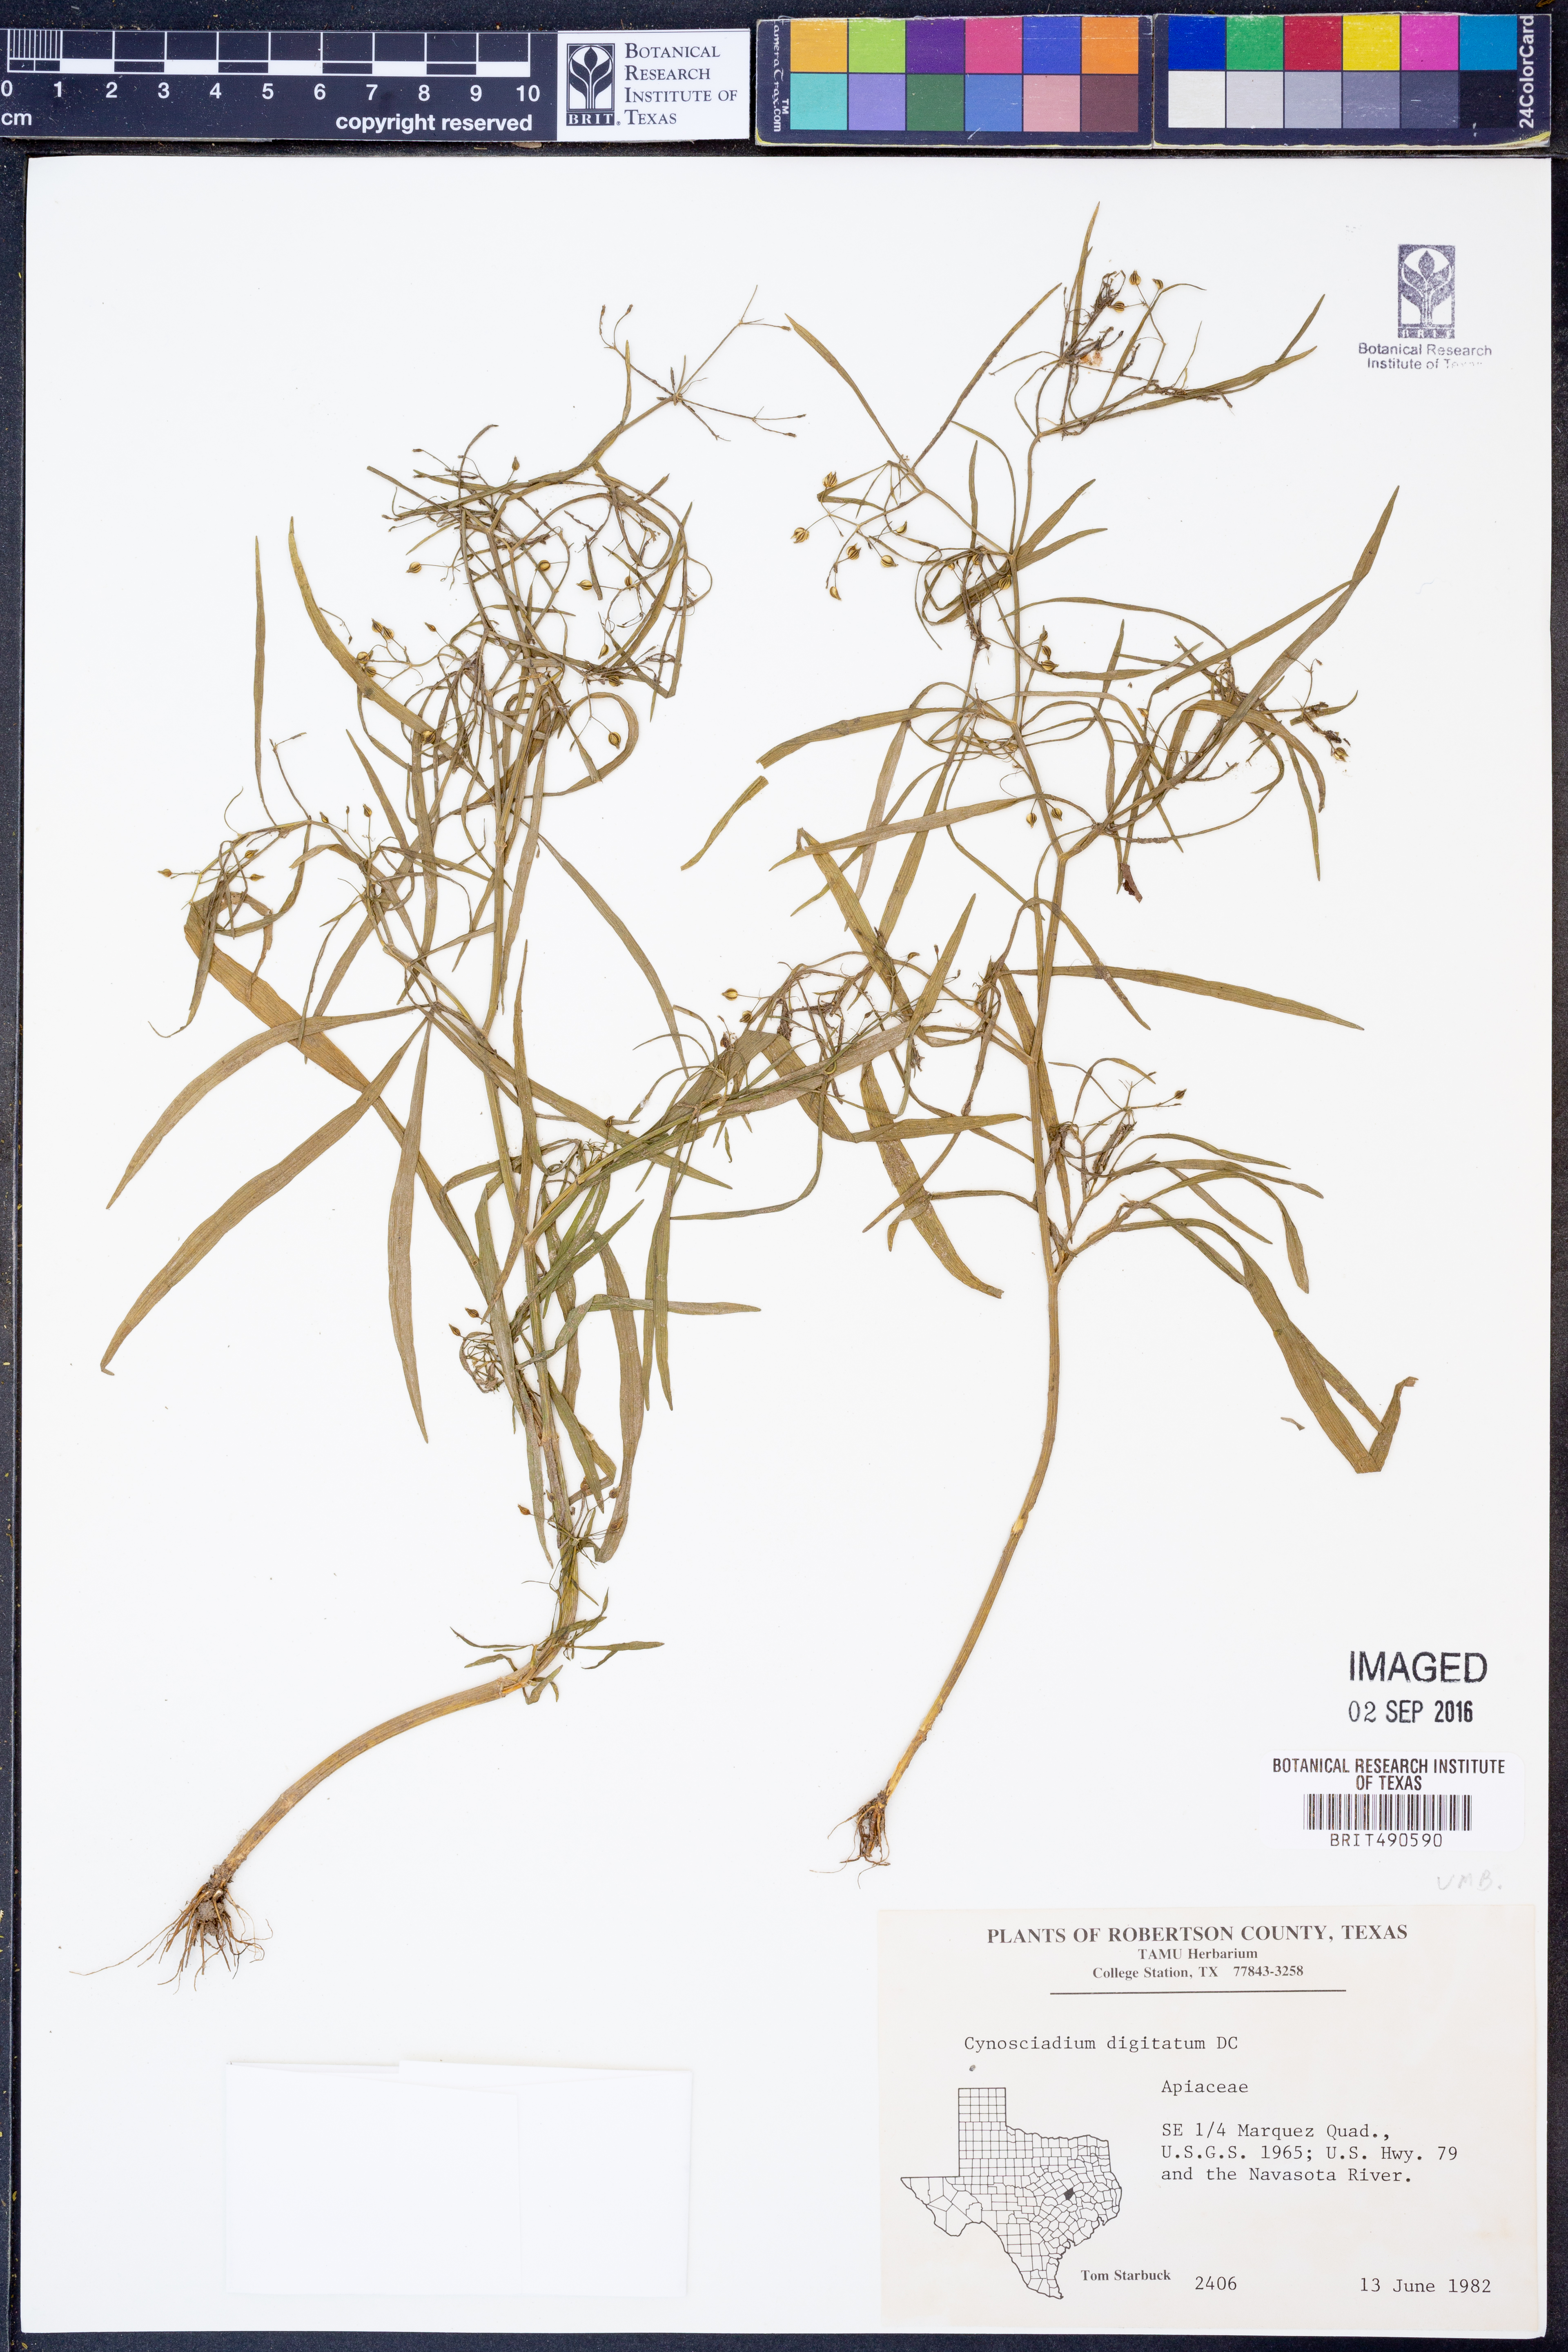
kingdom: Plantae
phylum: Tracheophyta
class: Magnoliopsida
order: Apiales
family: Apiaceae
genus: Cynosciadium
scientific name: Cynosciadium digitatum
